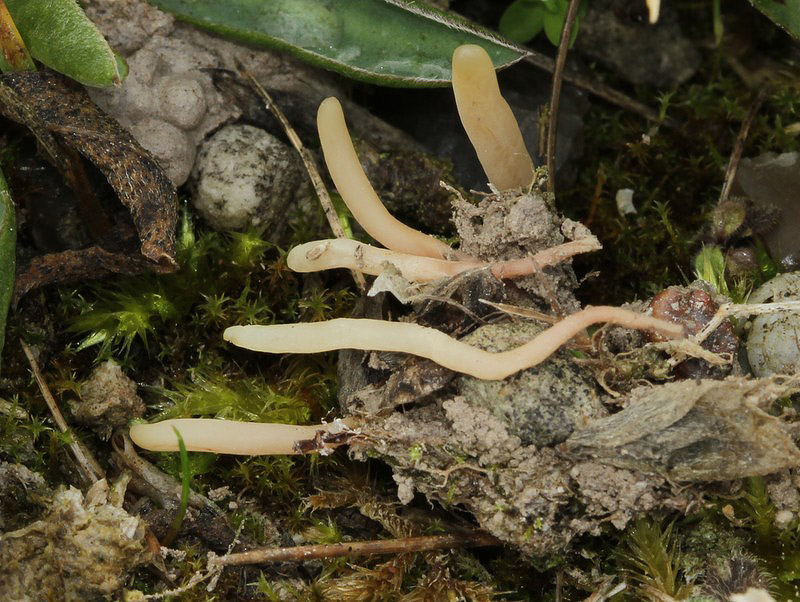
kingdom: Fungi
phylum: Basidiomycota
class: Agaricomycetes
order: Agaricales
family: Clavariaceae
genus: Clavaria
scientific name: Clavaria incarnata
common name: kødrød køllesvamp
